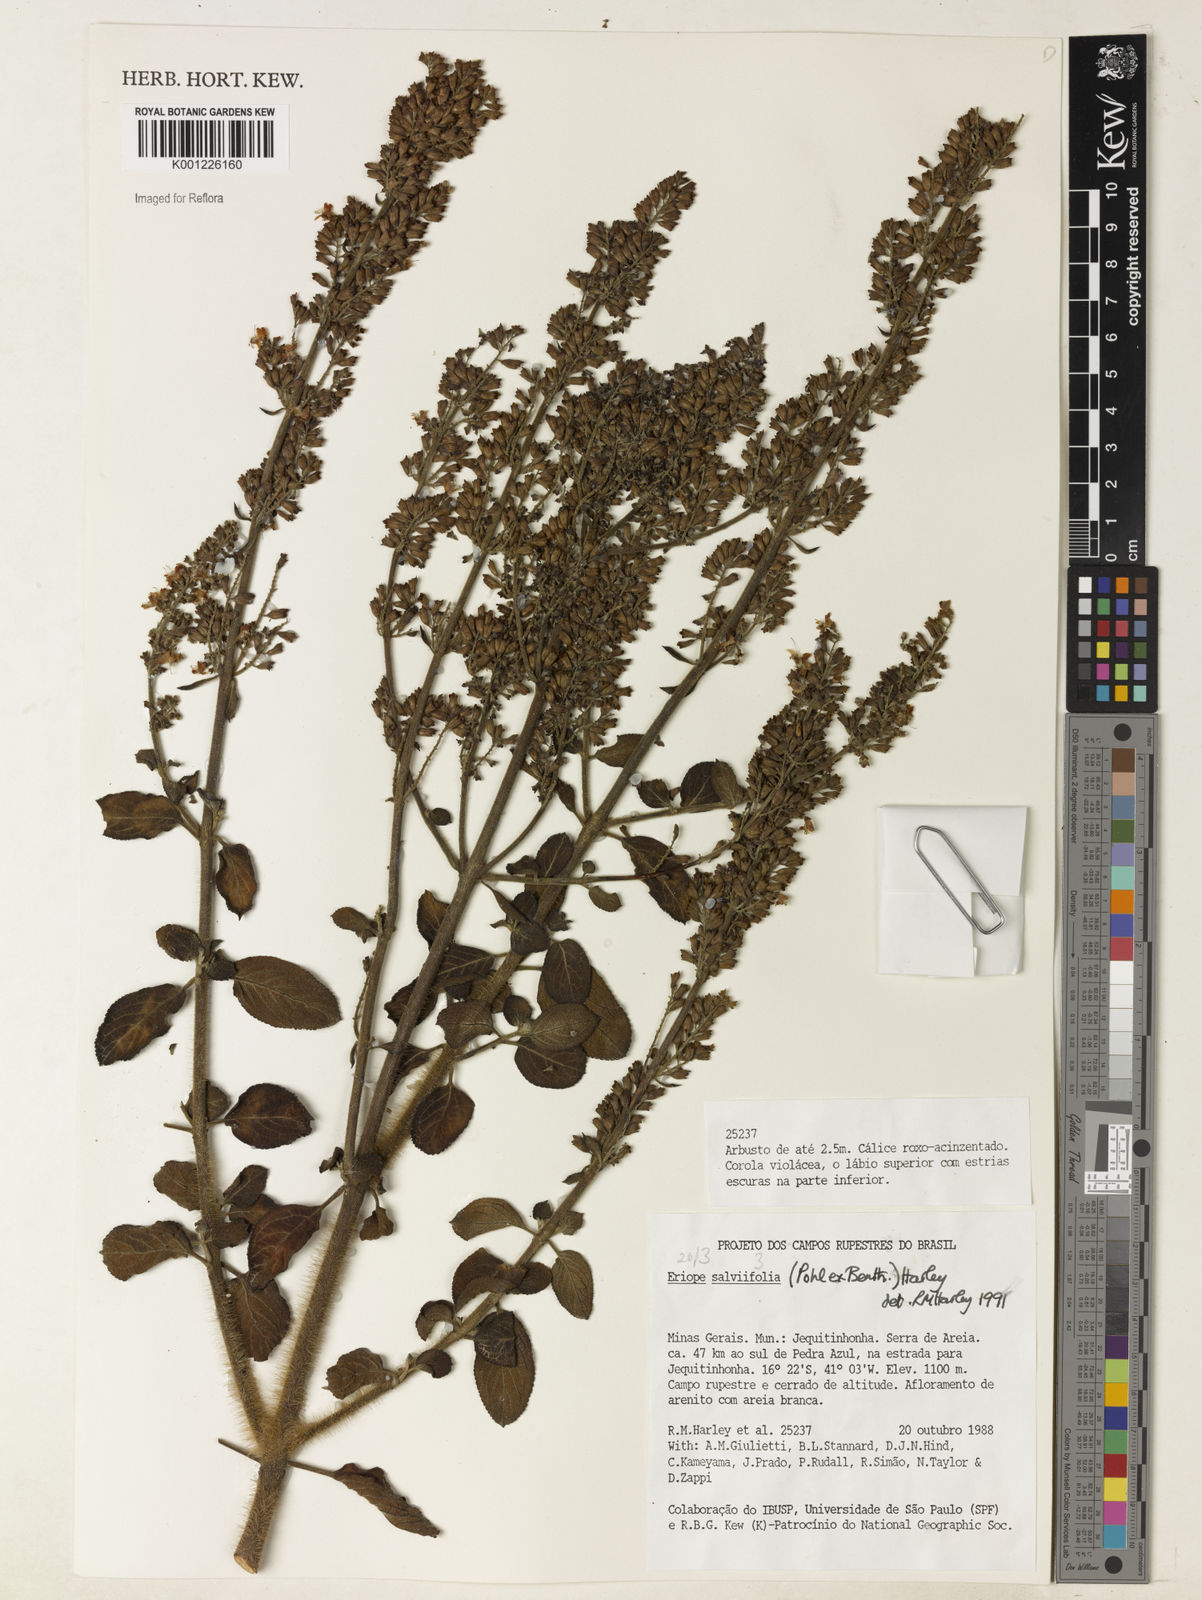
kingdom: Plantae
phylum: Tracheophyta
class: Magnoliopsida
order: Lamiales
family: Lamiaceae
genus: Eriope
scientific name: Eriope salviifolia
